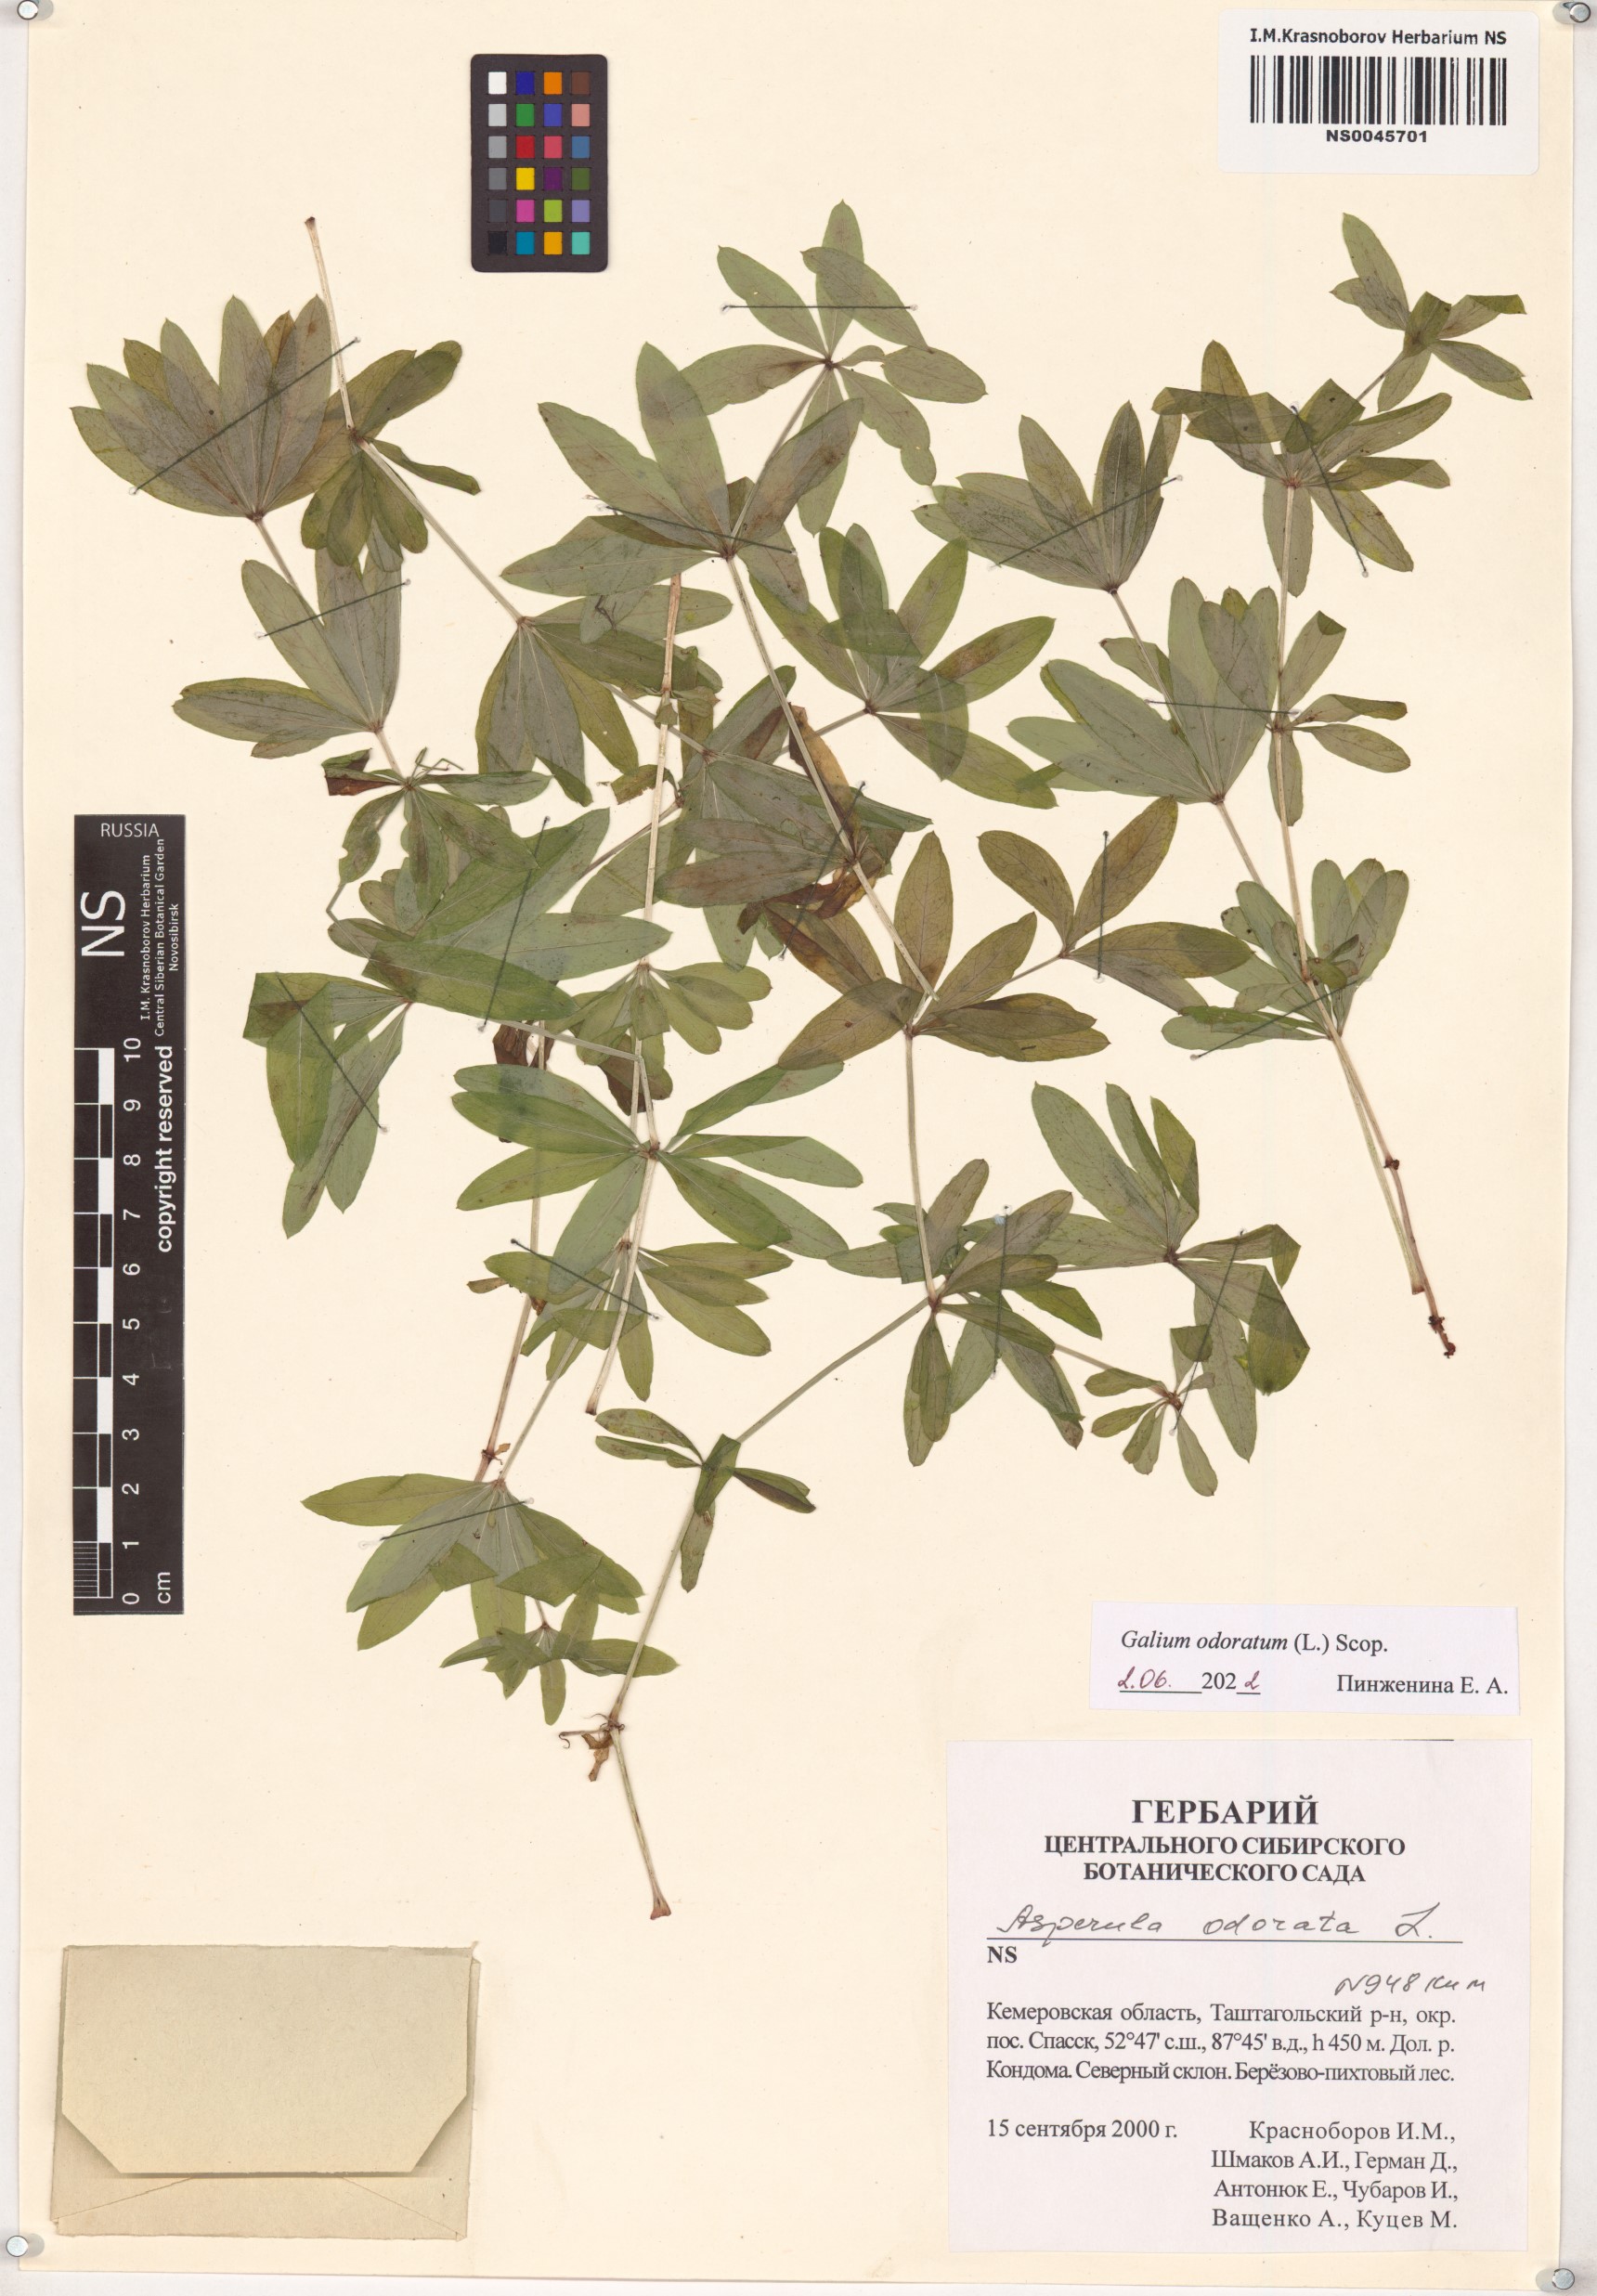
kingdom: Plantae
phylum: Tracheophyta
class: Magnoliopsida
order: Gentianales
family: Rubiaceae
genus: Galium
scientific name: Galium odoratum
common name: Sweet woodruff
